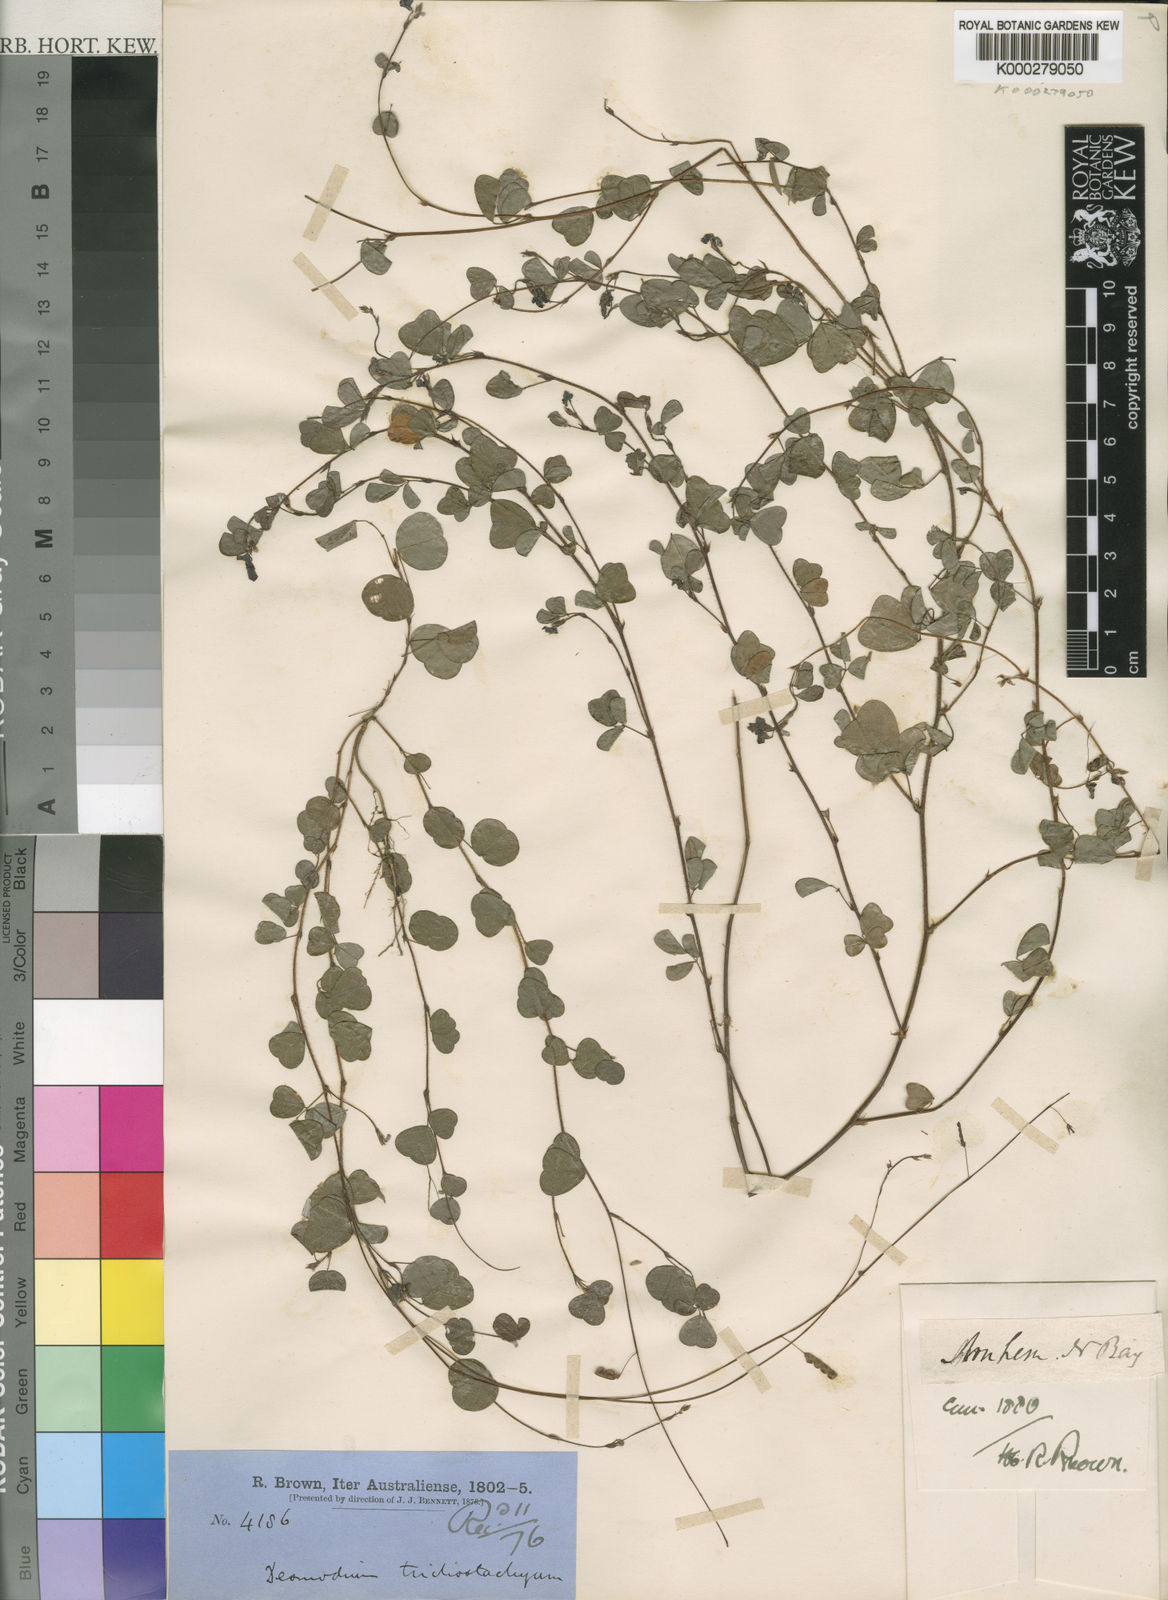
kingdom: Plantae
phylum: Tracheophyta
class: Magnoliopsida
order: Fabales
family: Fabaceae
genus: Grona
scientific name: Grona trichostachya
